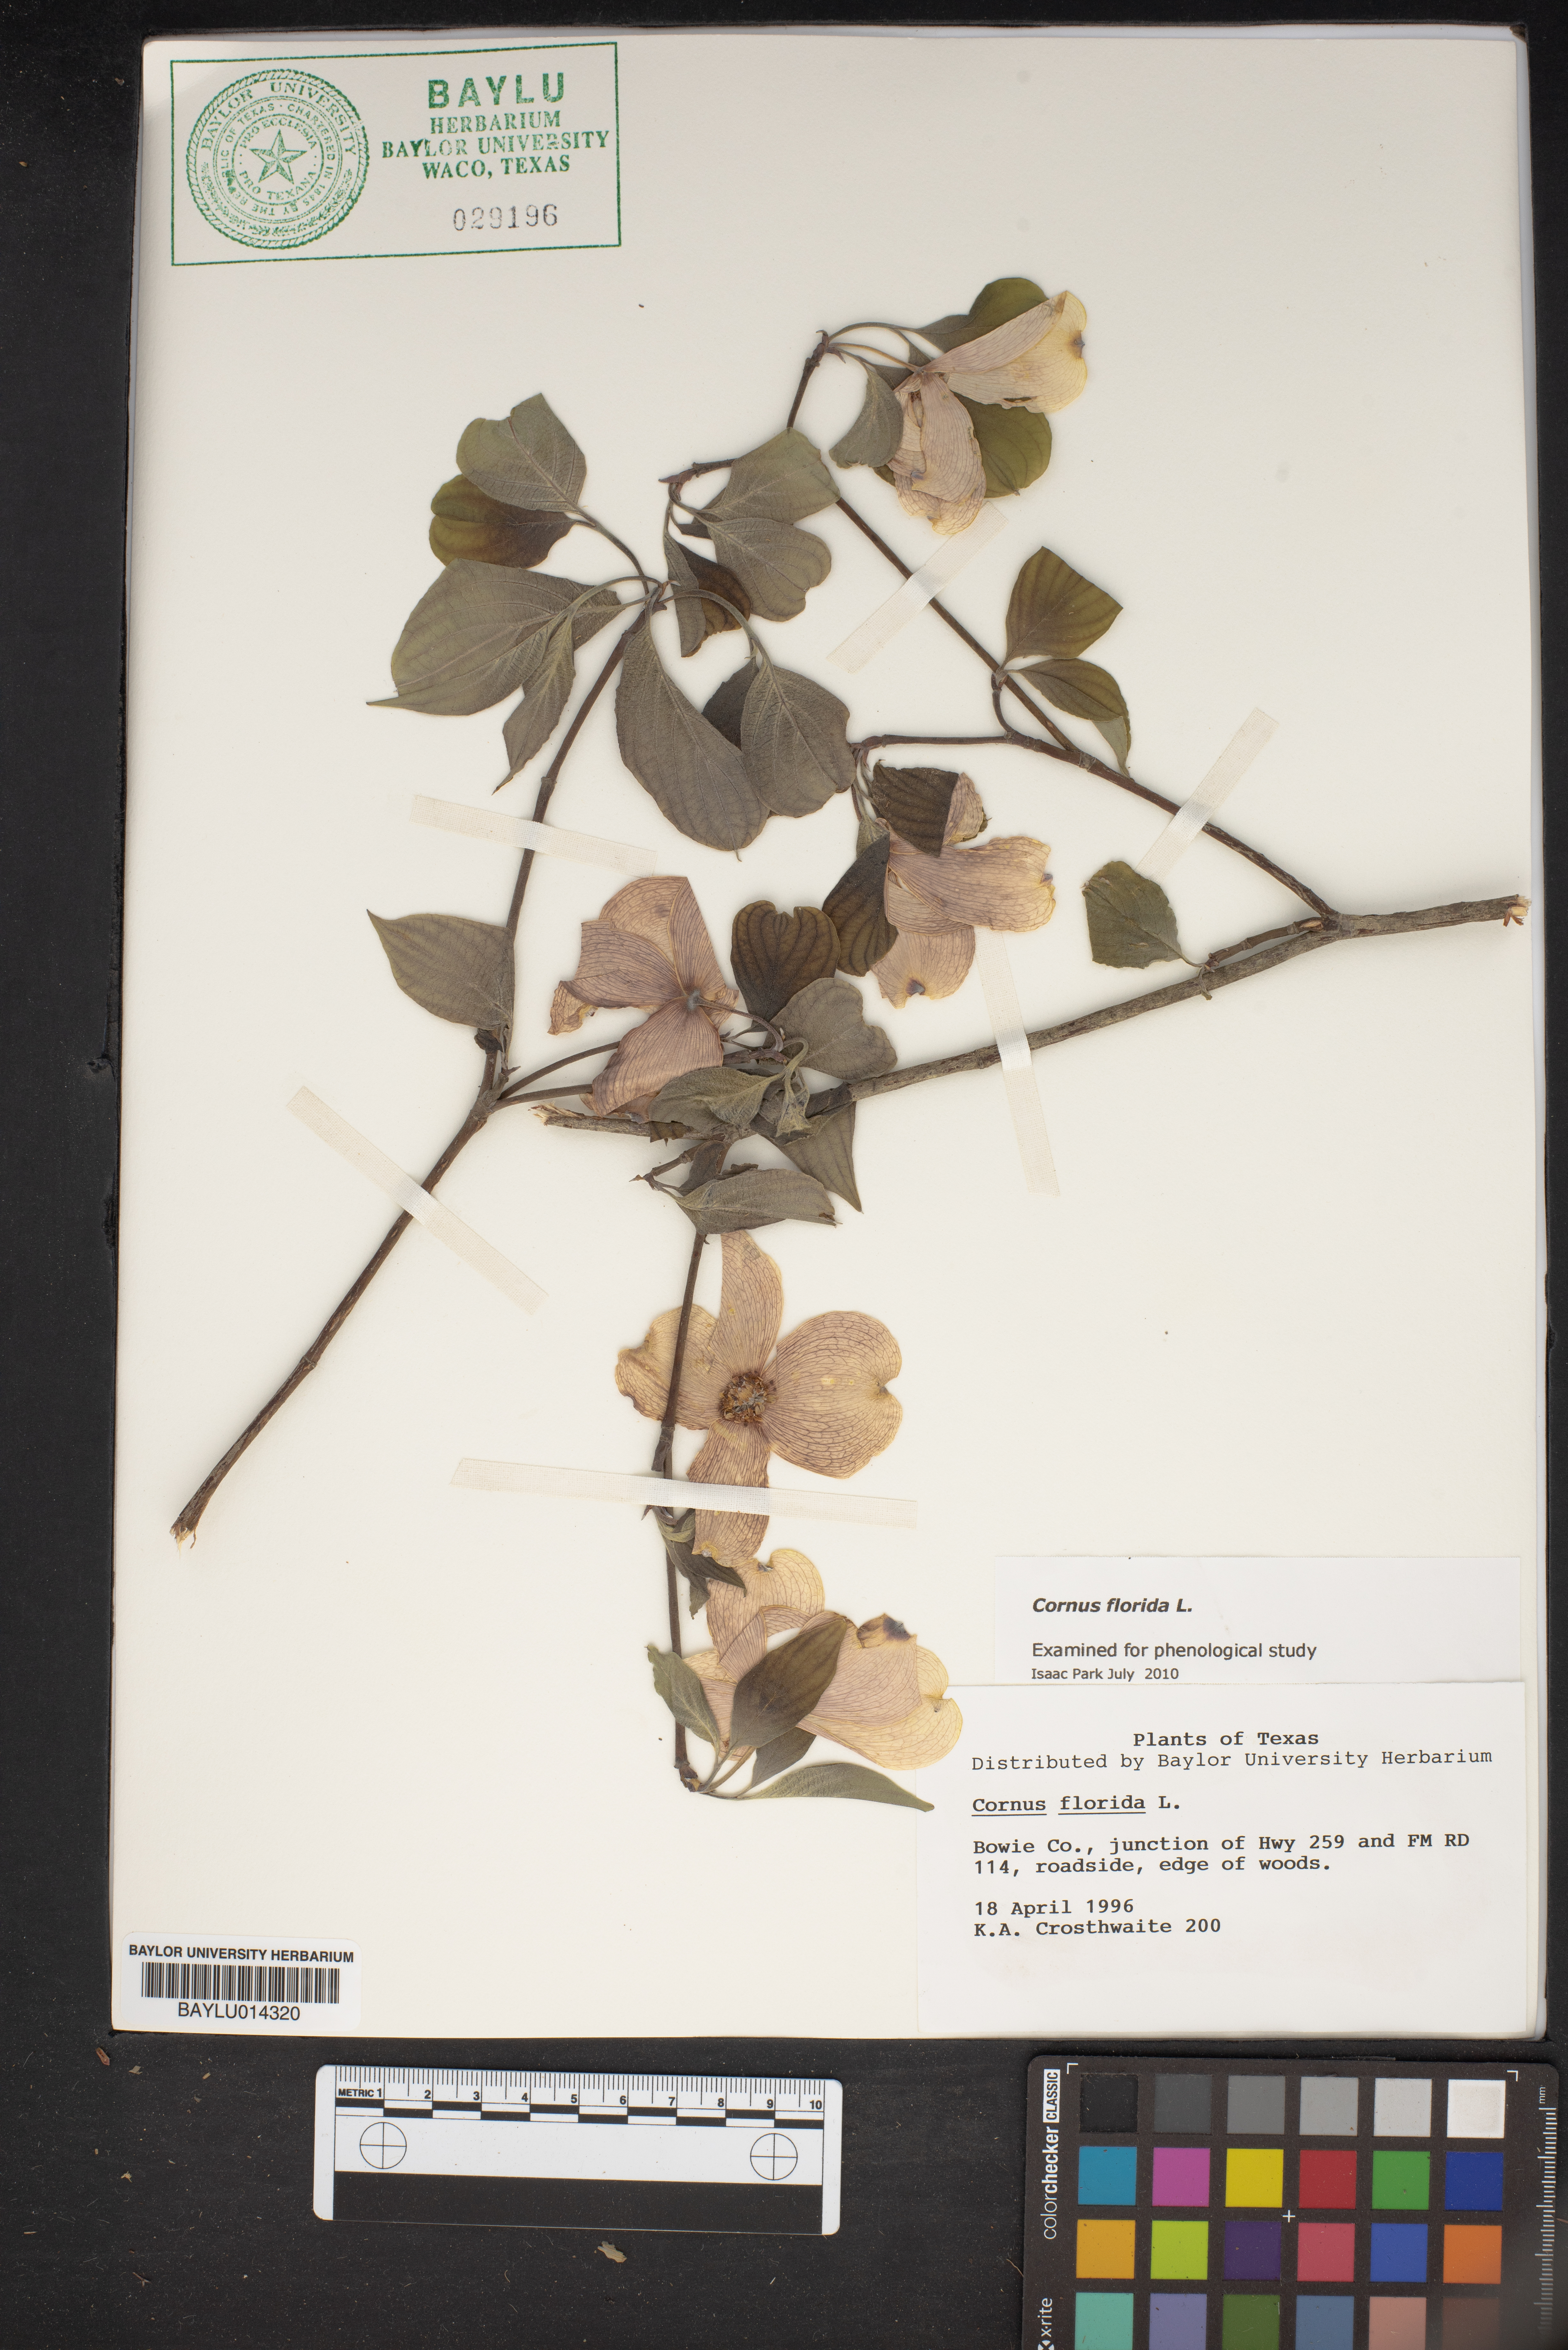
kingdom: Plantae
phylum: Tracheophyta
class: Magnoliopsida
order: Cornales
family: Cornaceae
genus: Cornus
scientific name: Cornus florida
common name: Flowering dogwood
